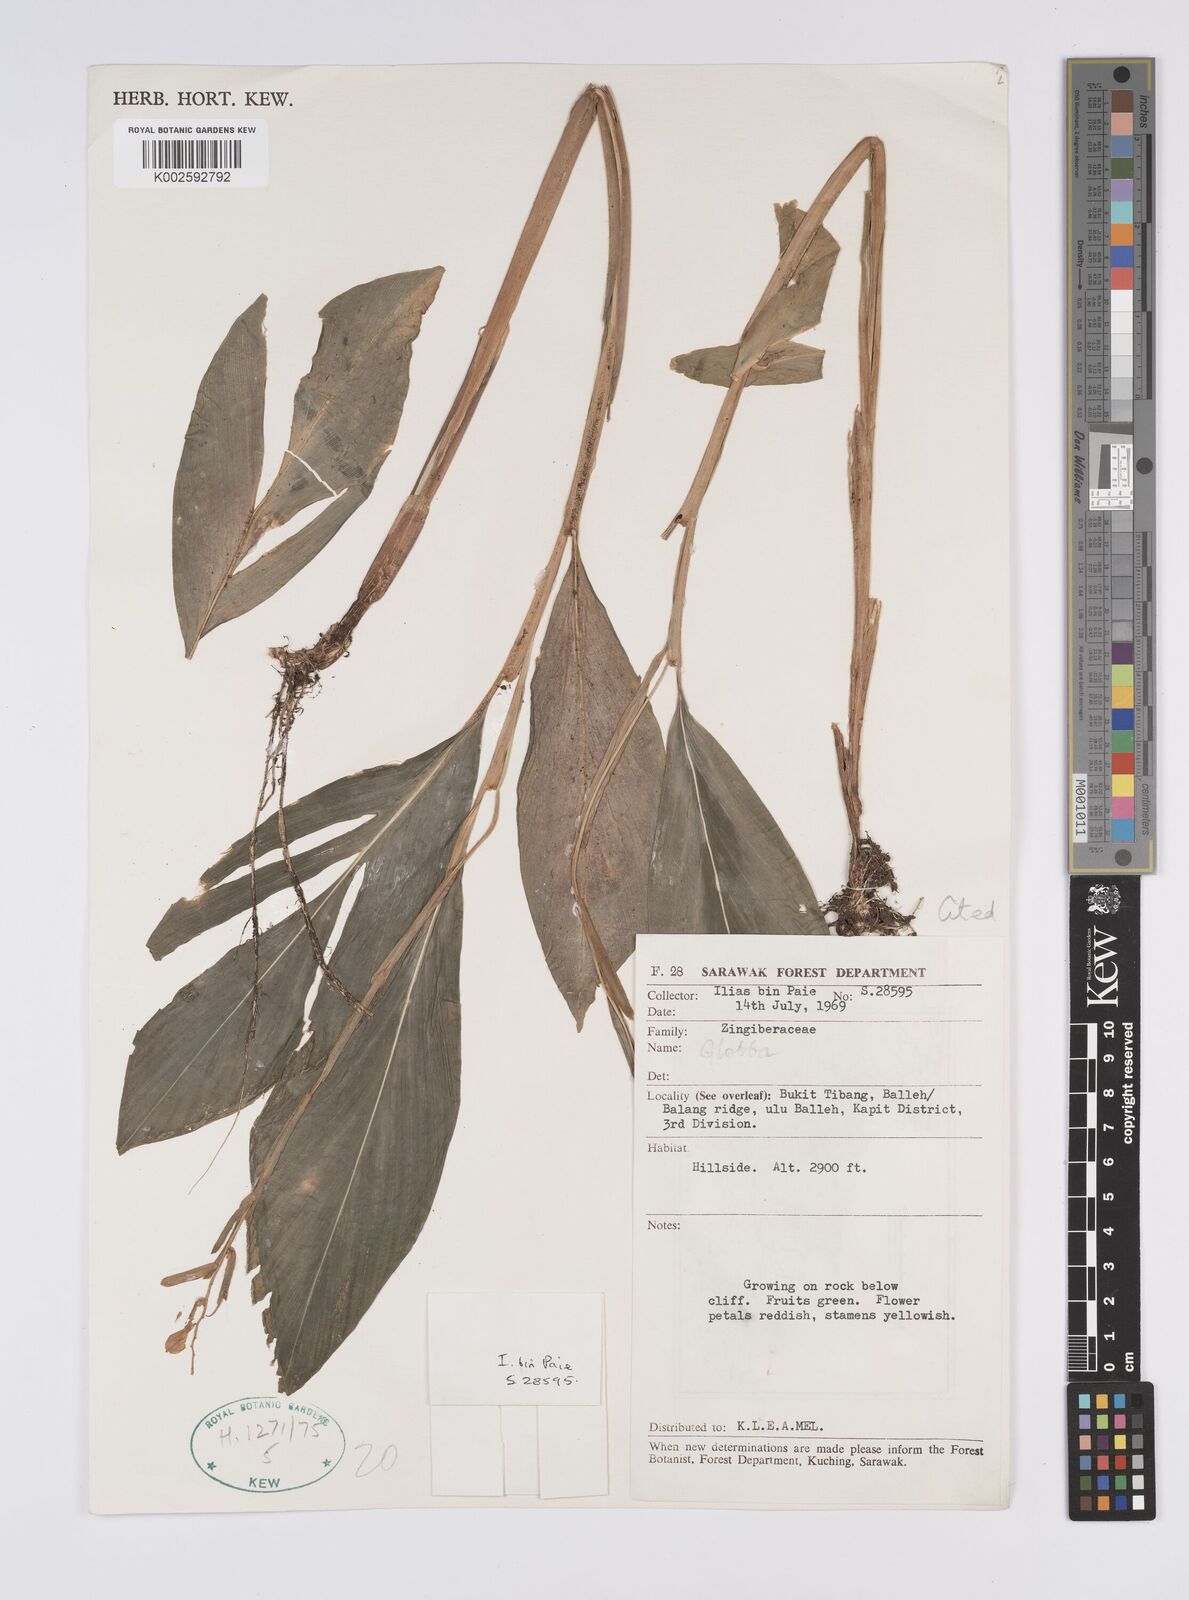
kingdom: Plantae
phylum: Tracheophyta
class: Liliopsida
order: Zingiberales
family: Zingiberaceae
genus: Globba
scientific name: Globba atrosanguinea
